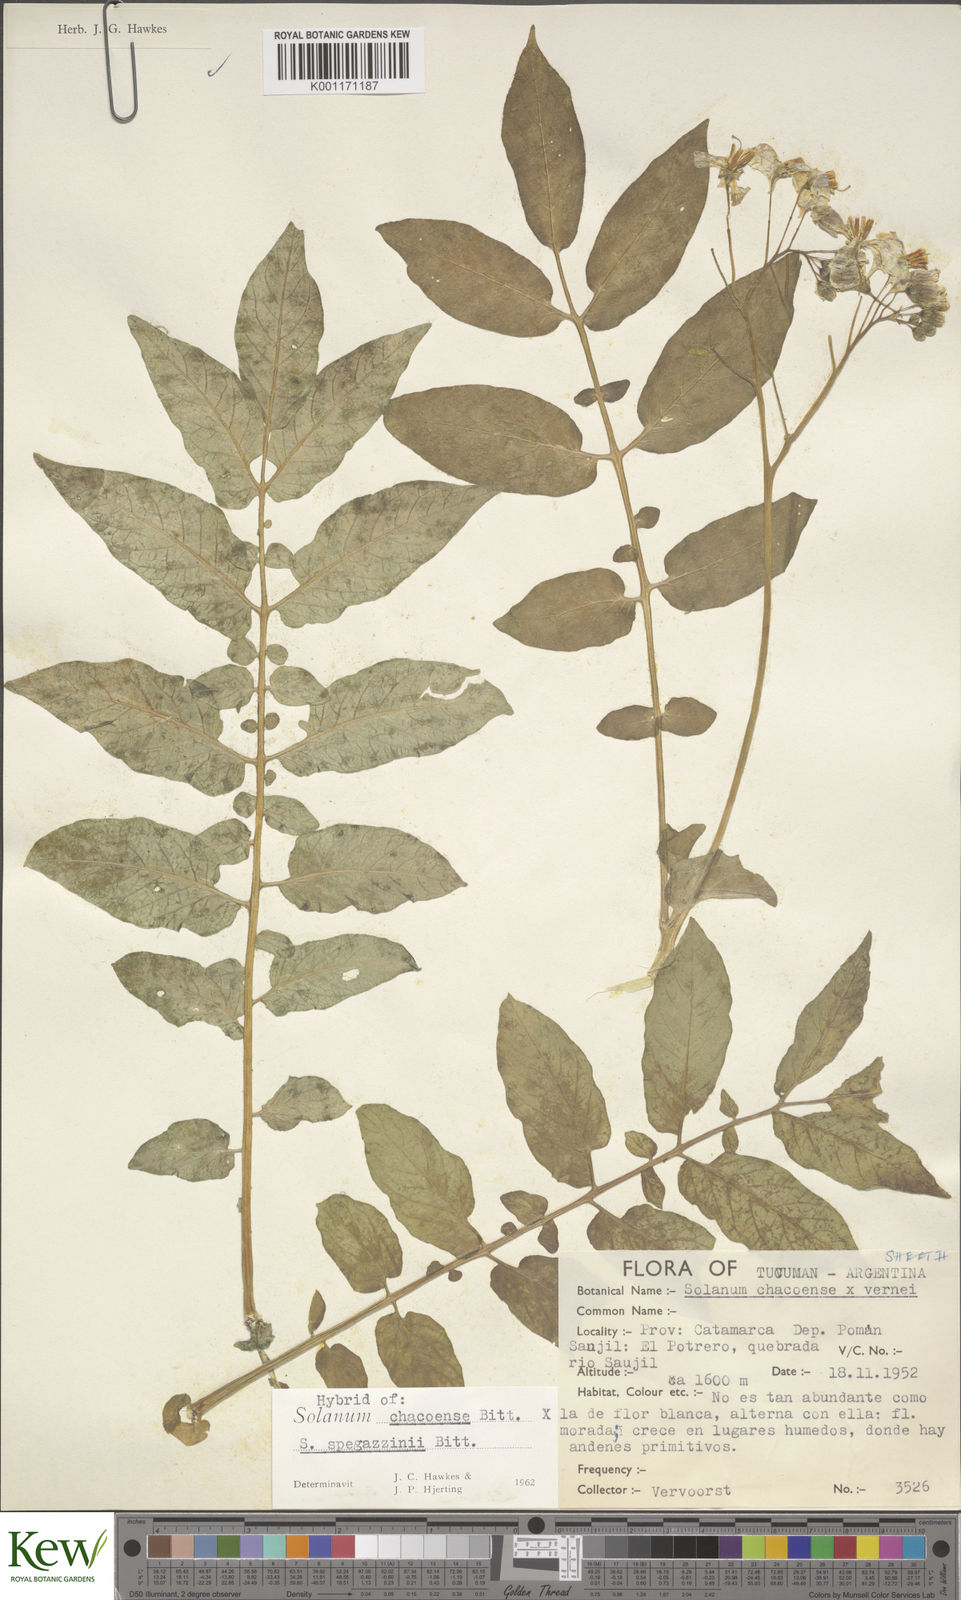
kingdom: Plantae
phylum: Tracheophyta
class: Magnoliopsida
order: Solanales
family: Solanaceae
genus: Solanum
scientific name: Solanum chacoense
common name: Chaco potato
